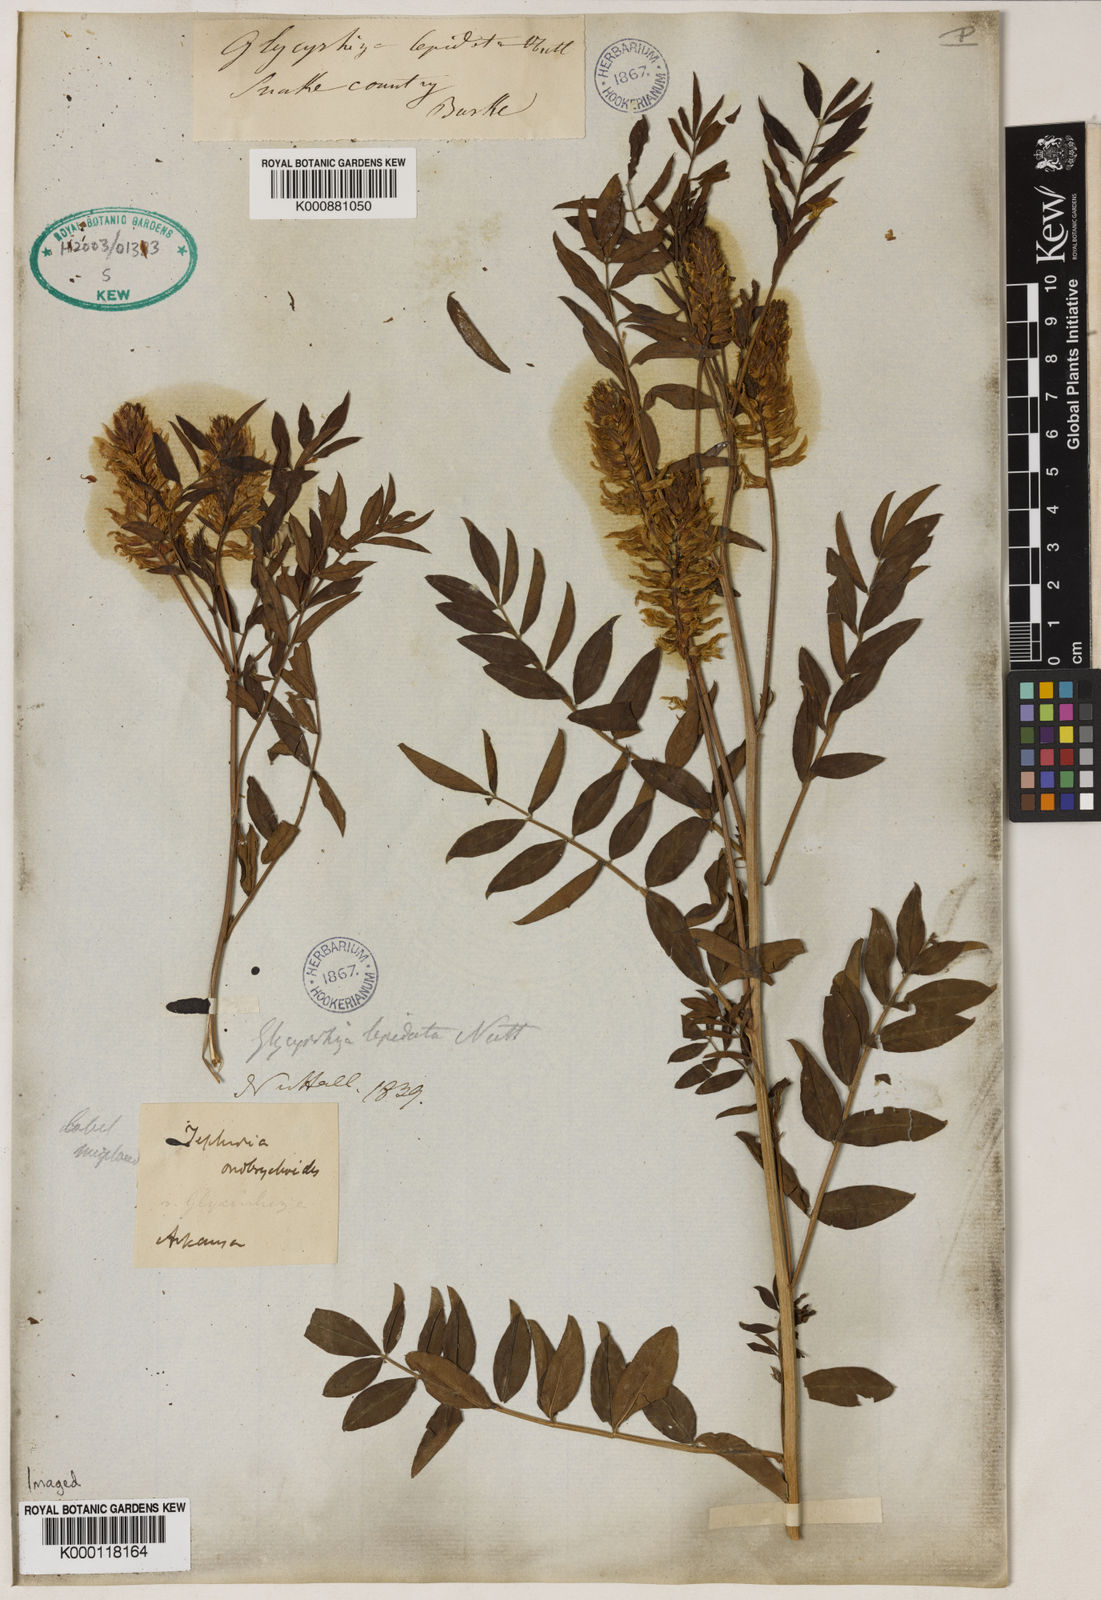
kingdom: Plantae
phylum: Tracheophyta
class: Magnoliopsida
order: Fabales
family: Fabaceae
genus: Glycyrrhiza
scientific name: Glycyrrhiza
